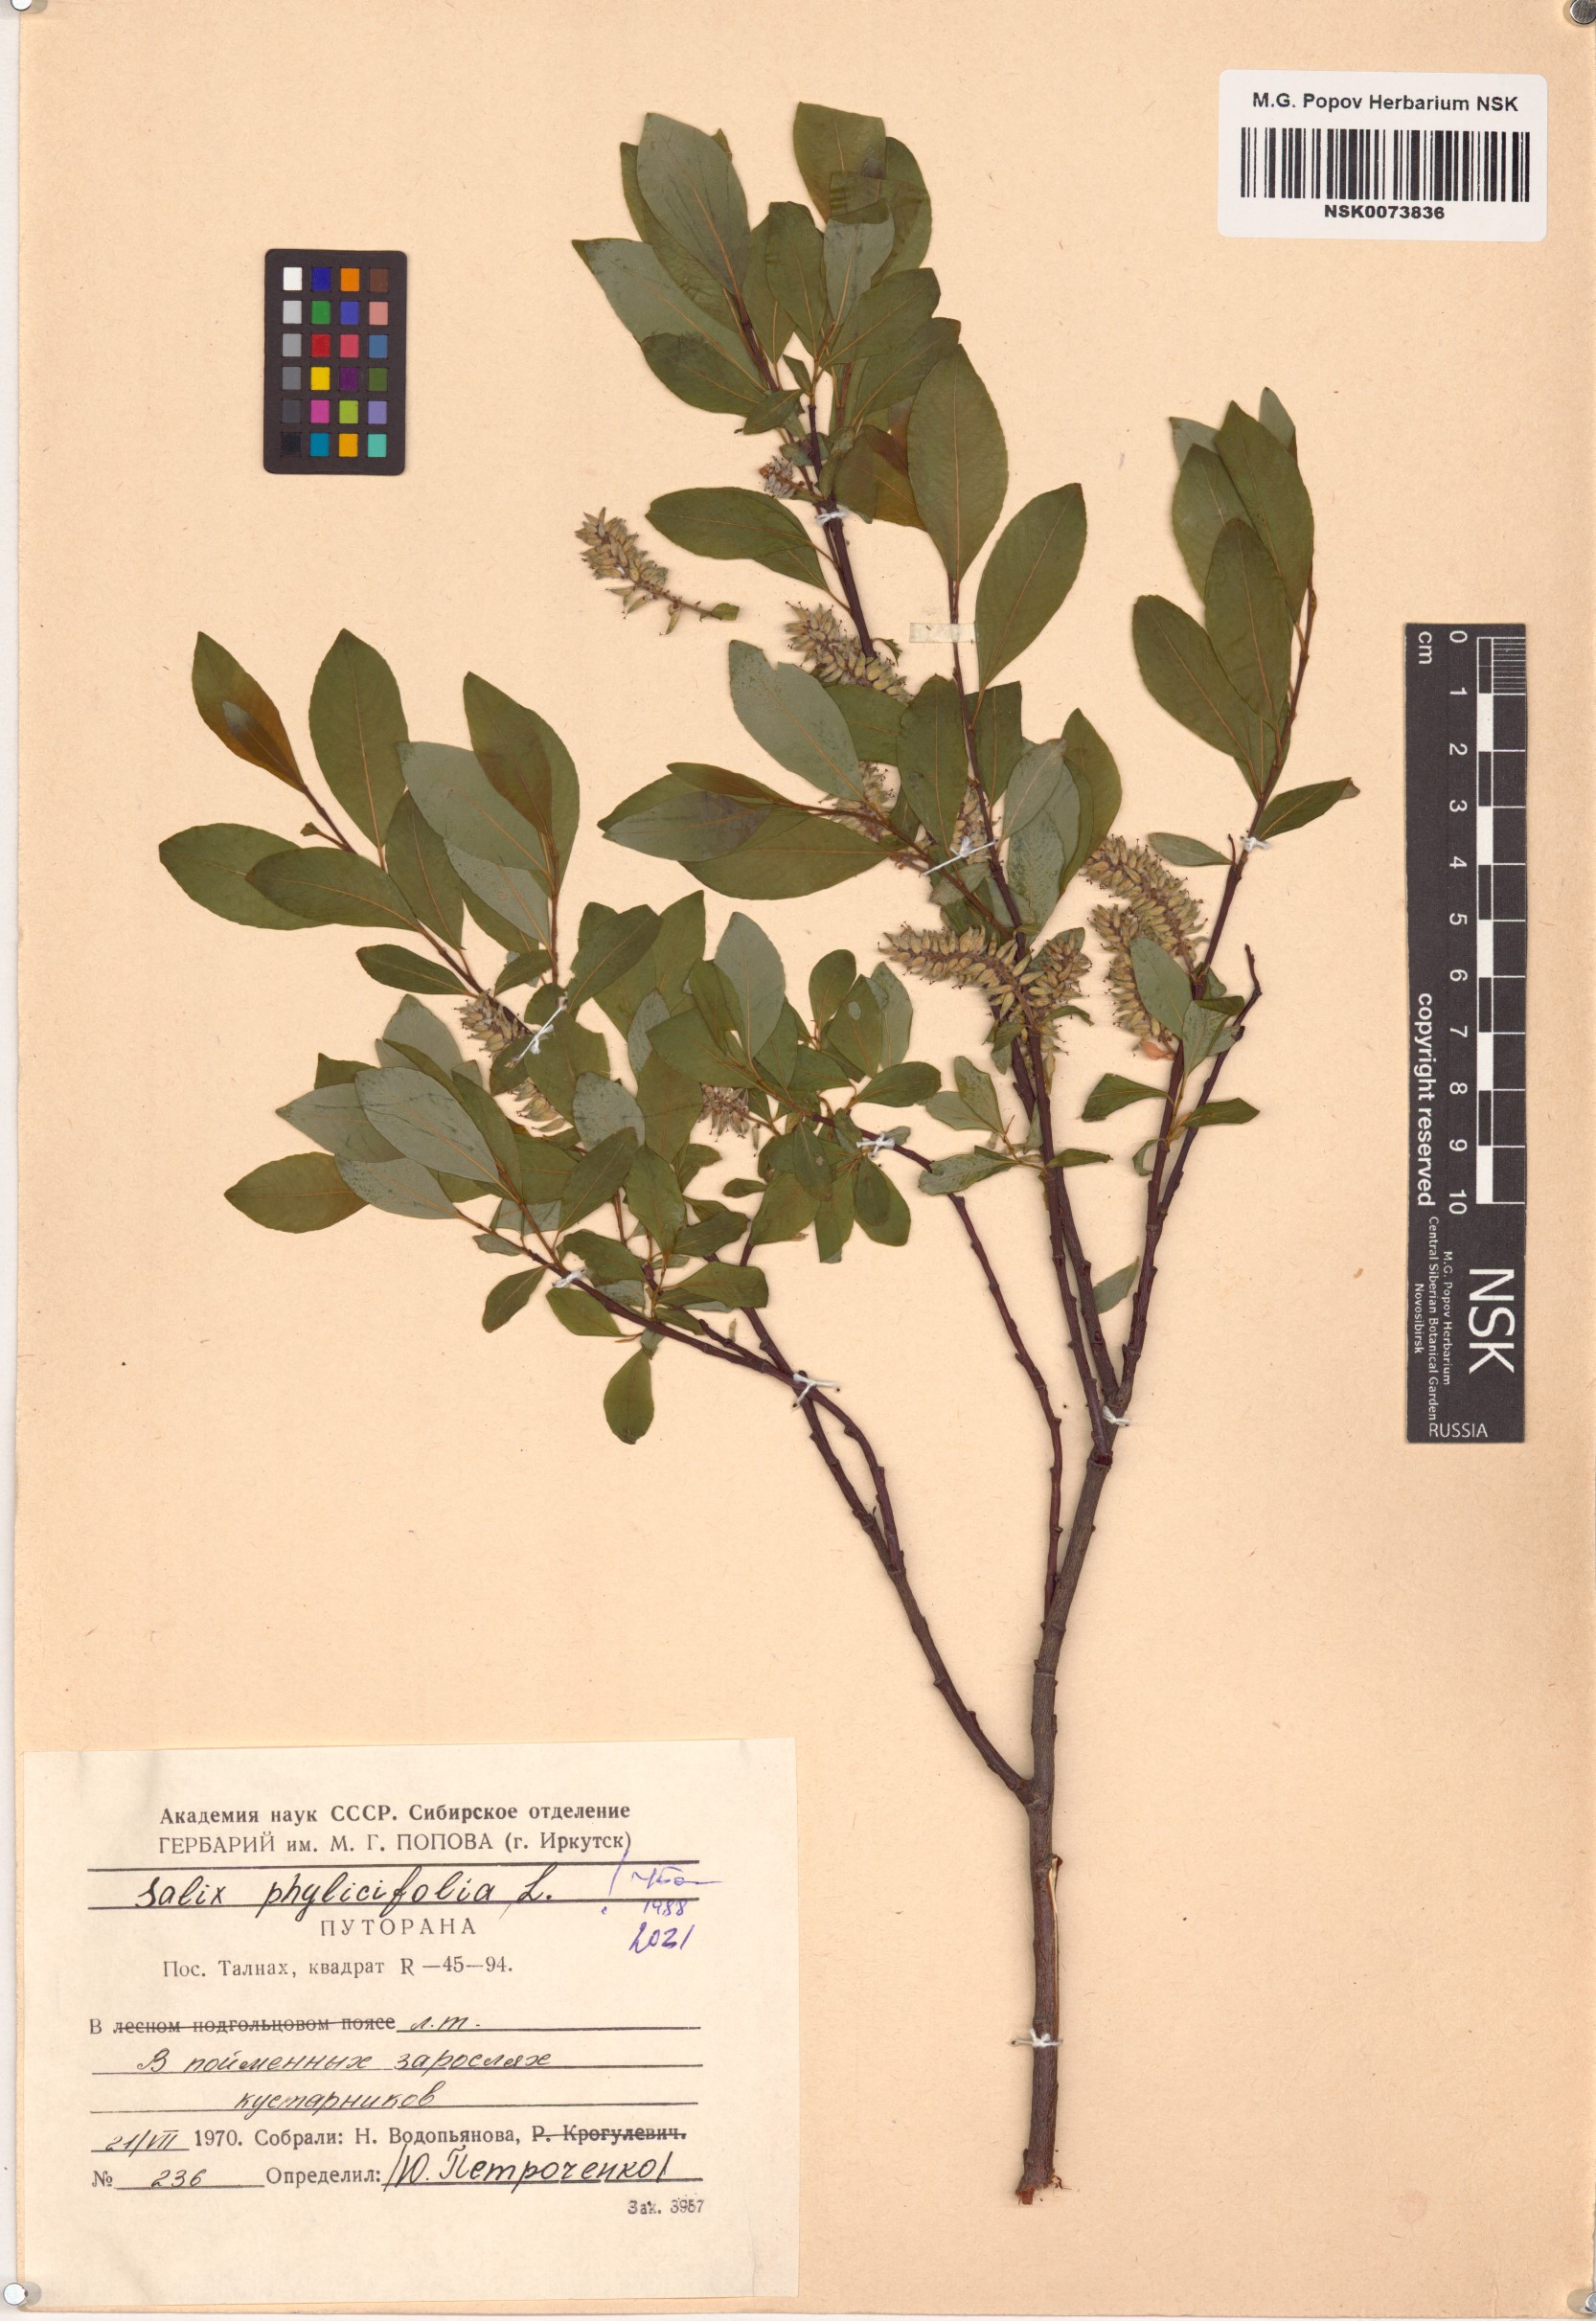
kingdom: Plantae
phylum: Tracheophyta
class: Magnoliopsida
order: Malpighiales
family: Salicaceae
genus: Salix
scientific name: Salix phylicifolia
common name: Tea-leaved willow
